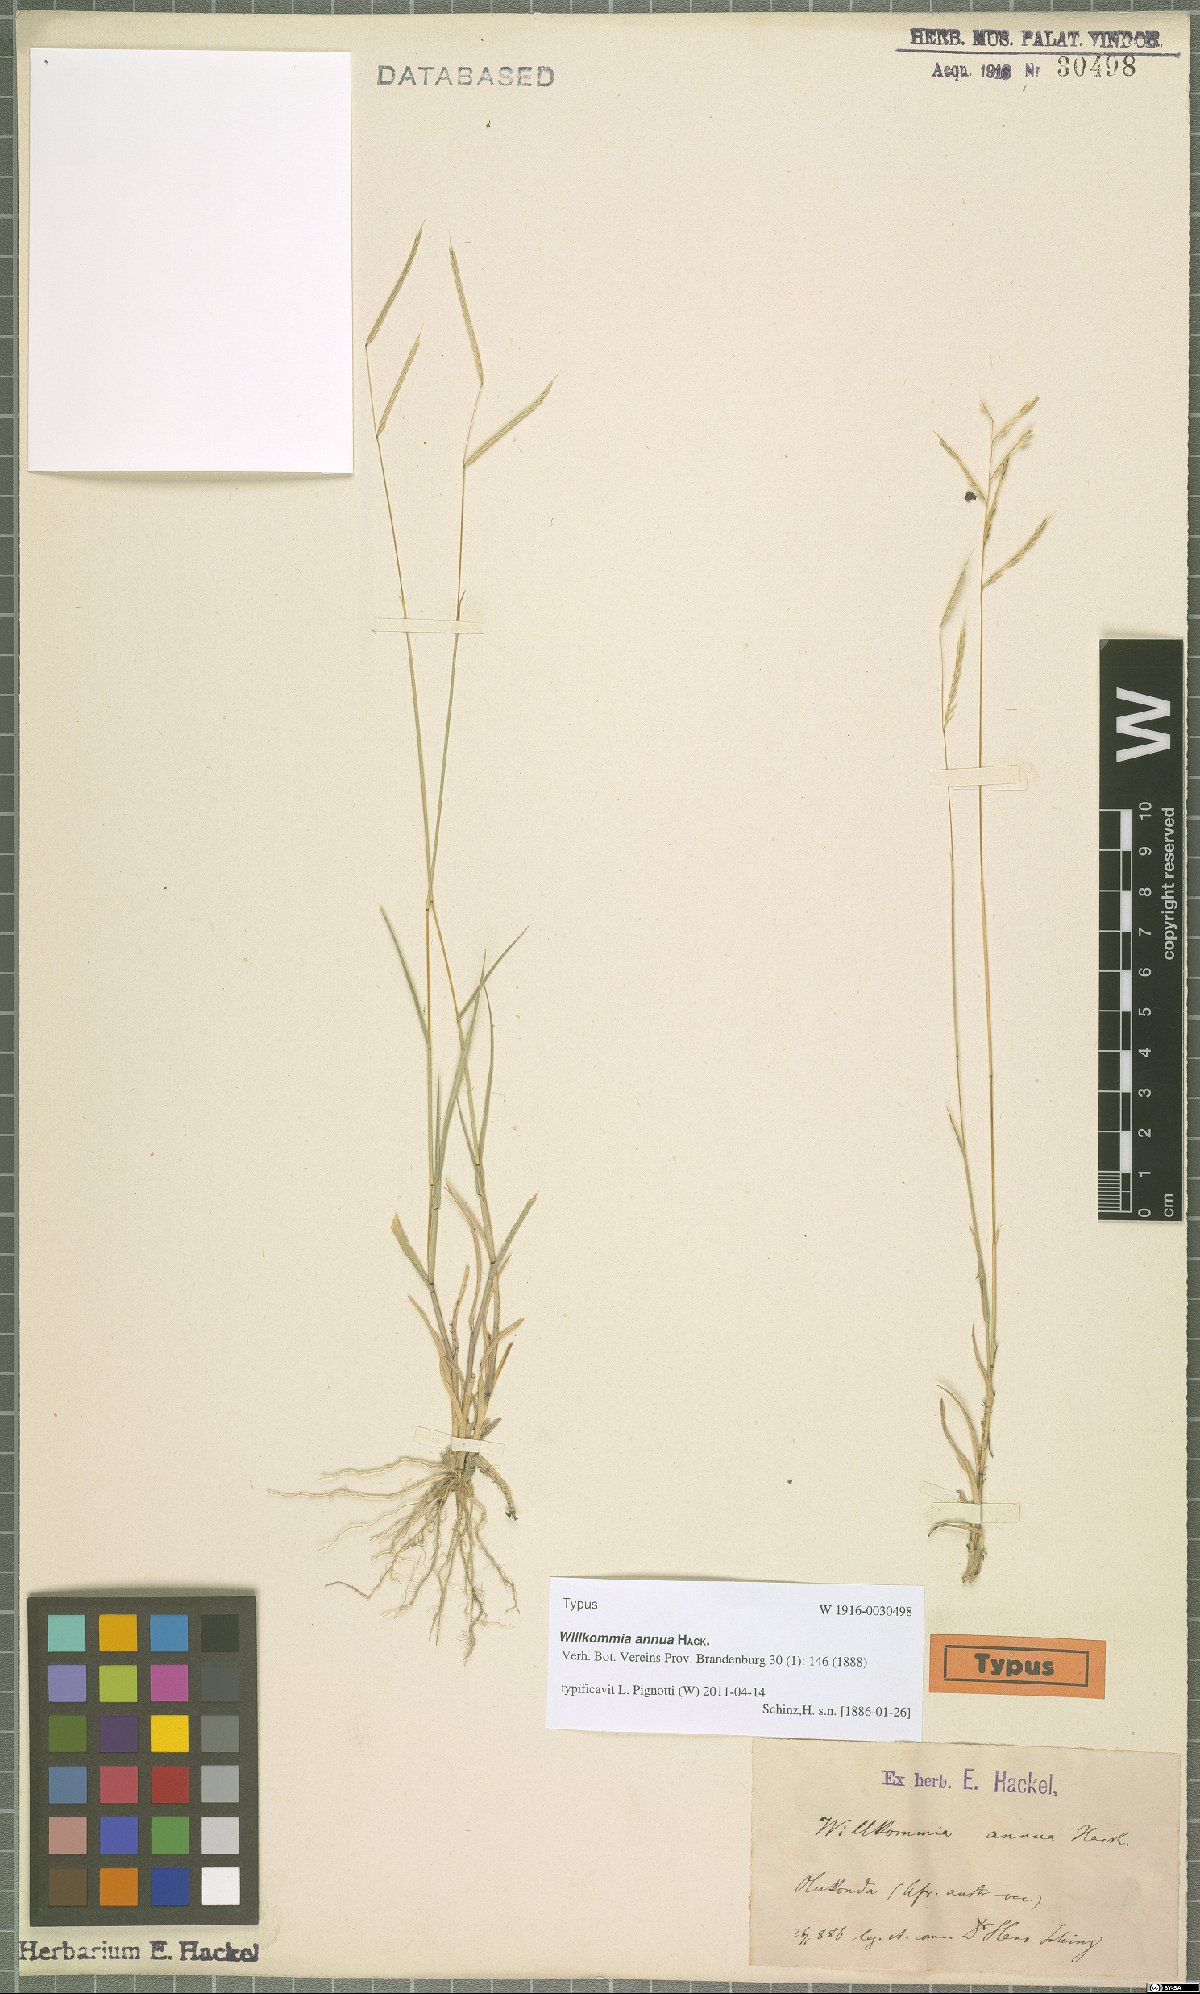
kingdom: Plantae
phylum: Tracheophyta
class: Liliopsida
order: Poales
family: Poaceae
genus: Willkommia
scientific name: Willkommia annua
